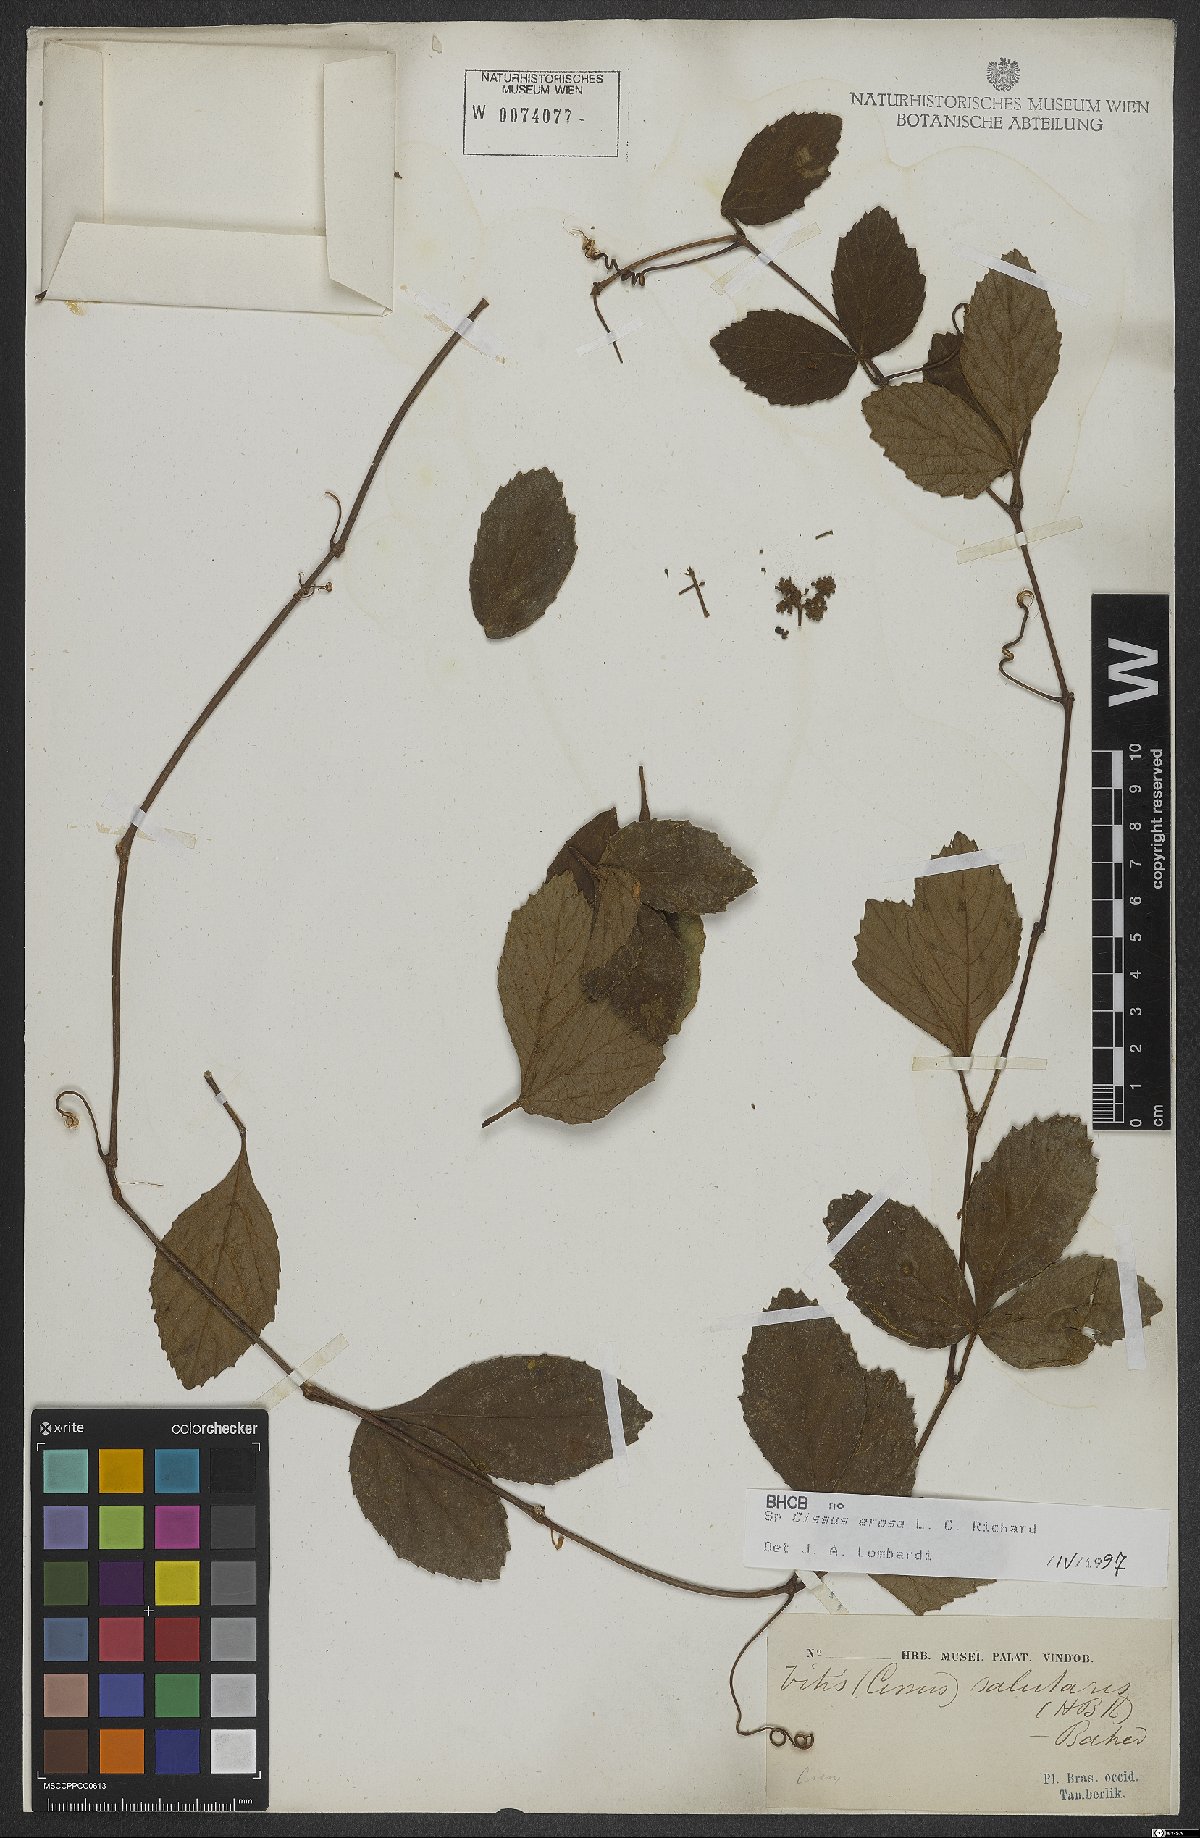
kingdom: Plantae
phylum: Tracheophyta
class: Magnoliopsida
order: Vitales
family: Vitaceae
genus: Cissus
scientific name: Cissus erosa
